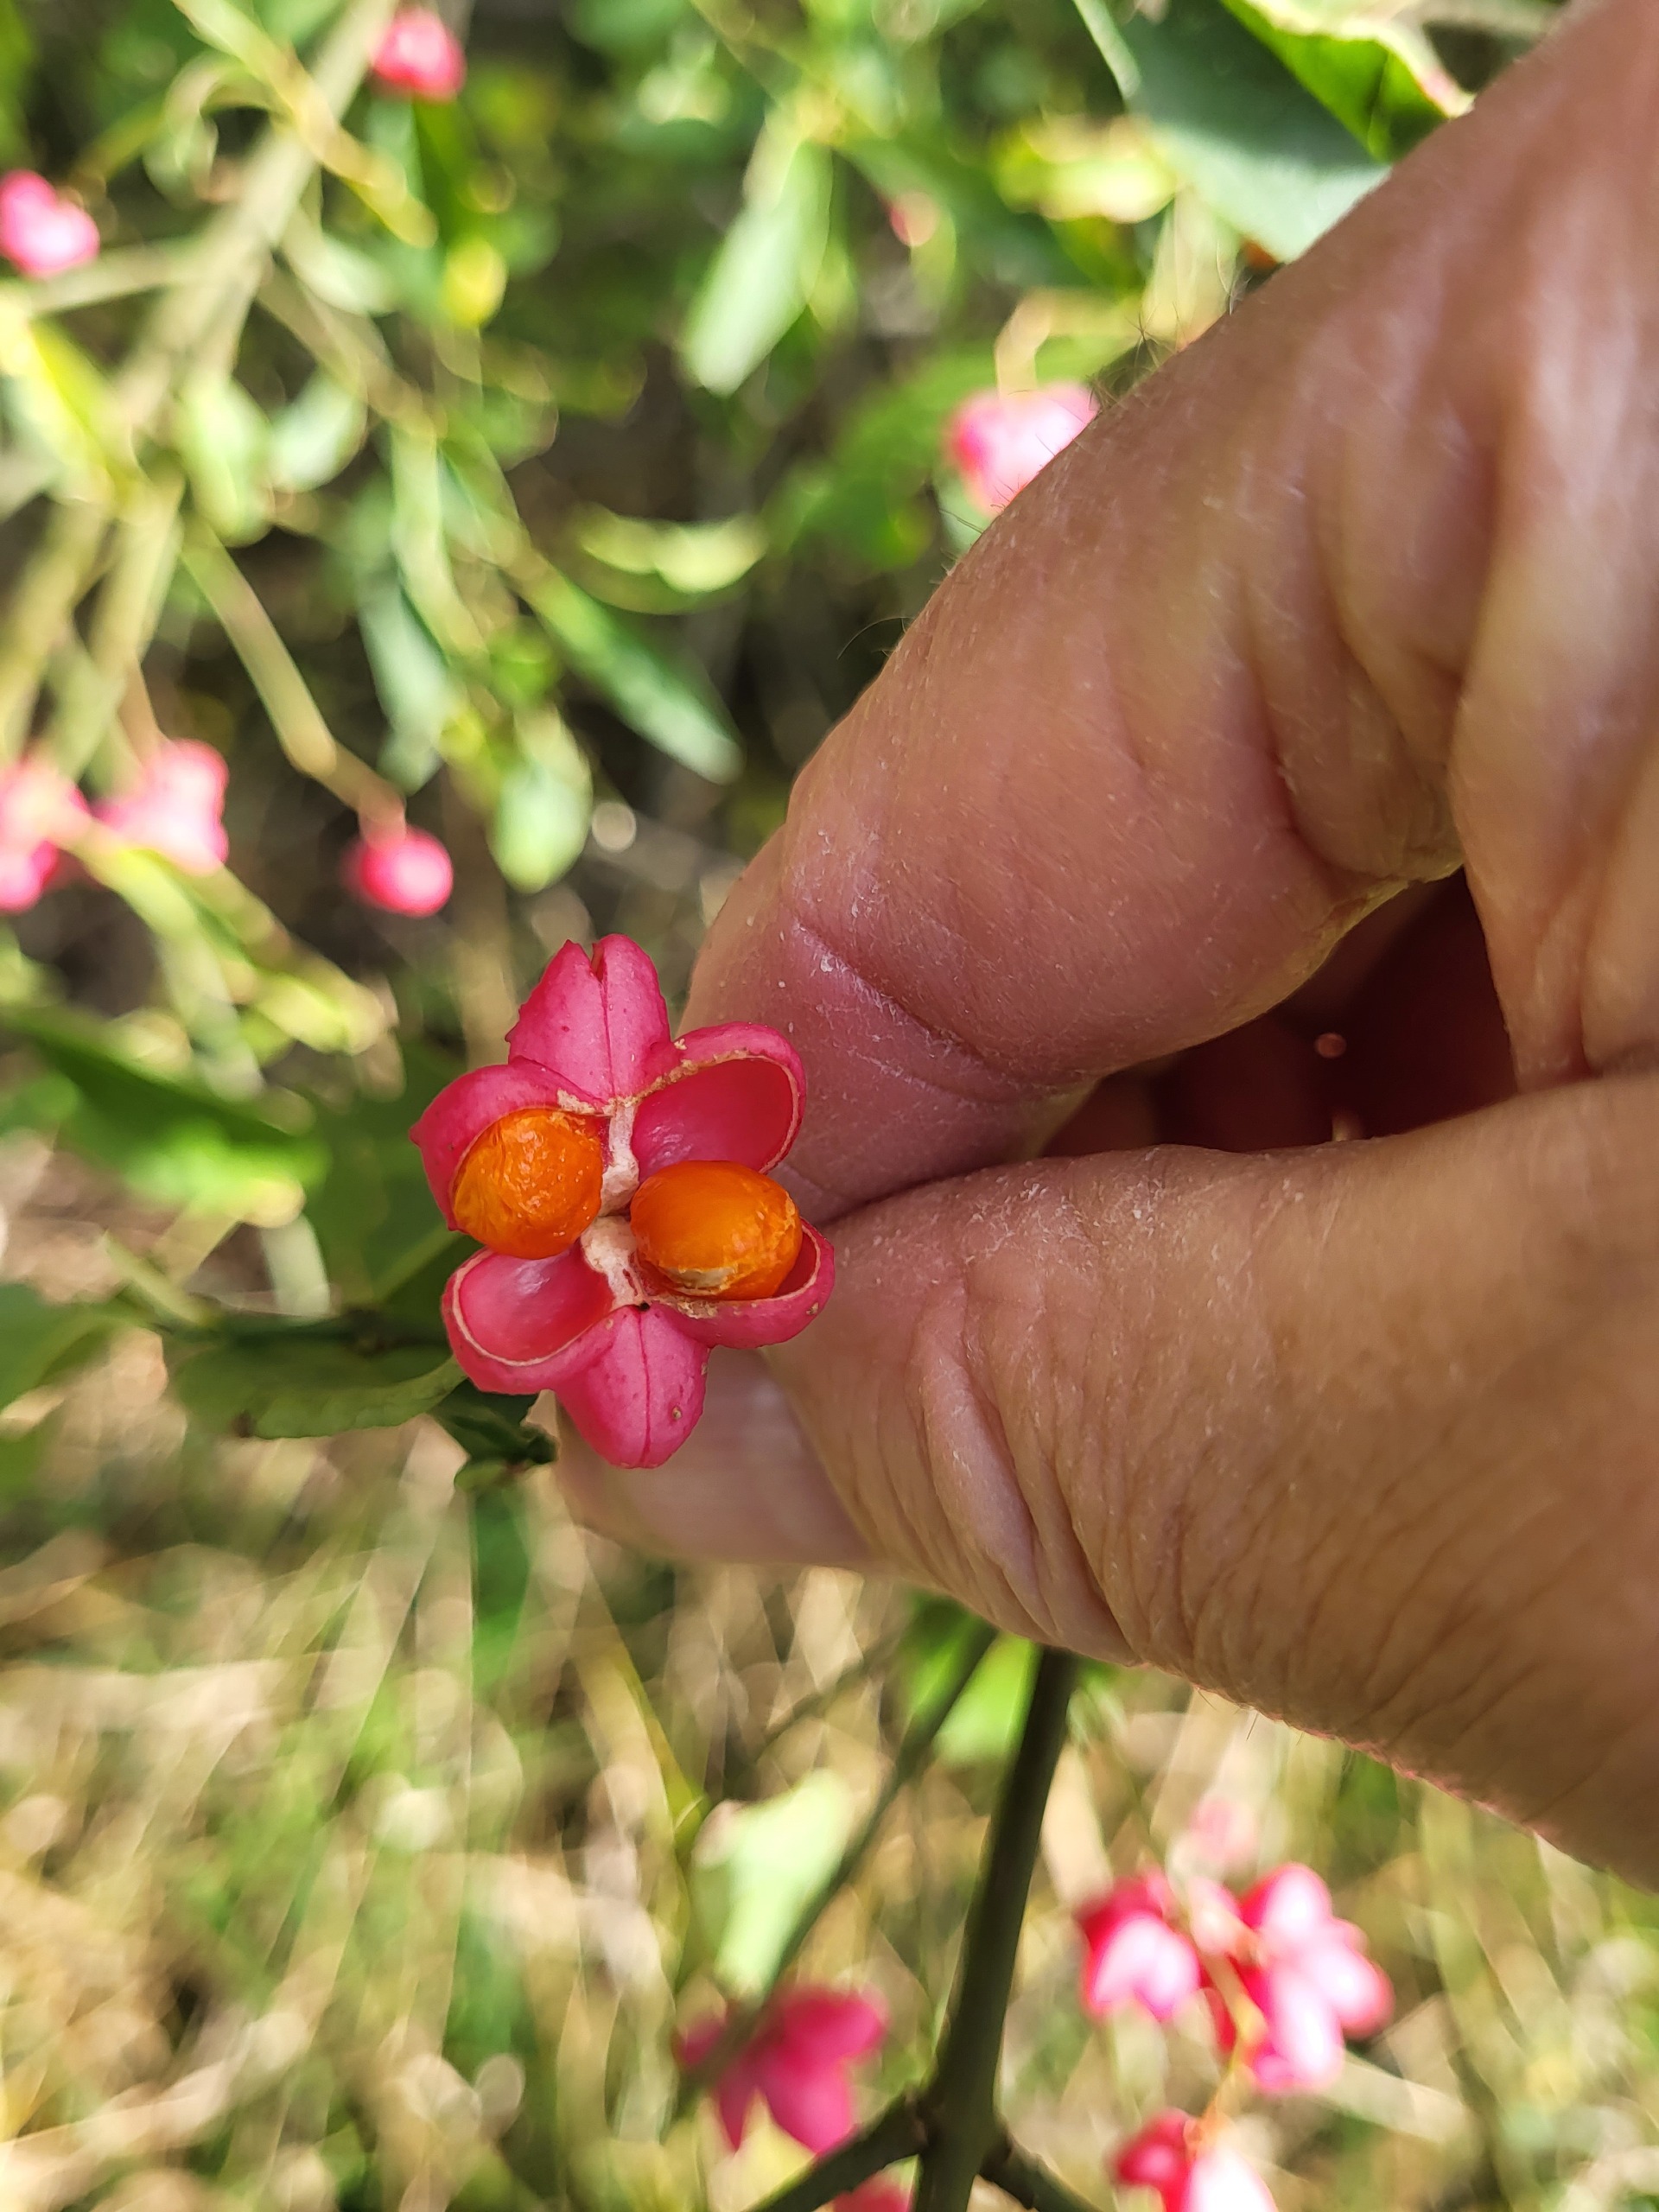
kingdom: Plantae
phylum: Tracheophyta
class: Magnoliopsida
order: Celastrales
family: Celastraceae
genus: Euonymus
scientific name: Euonymus europaeus
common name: Benved
